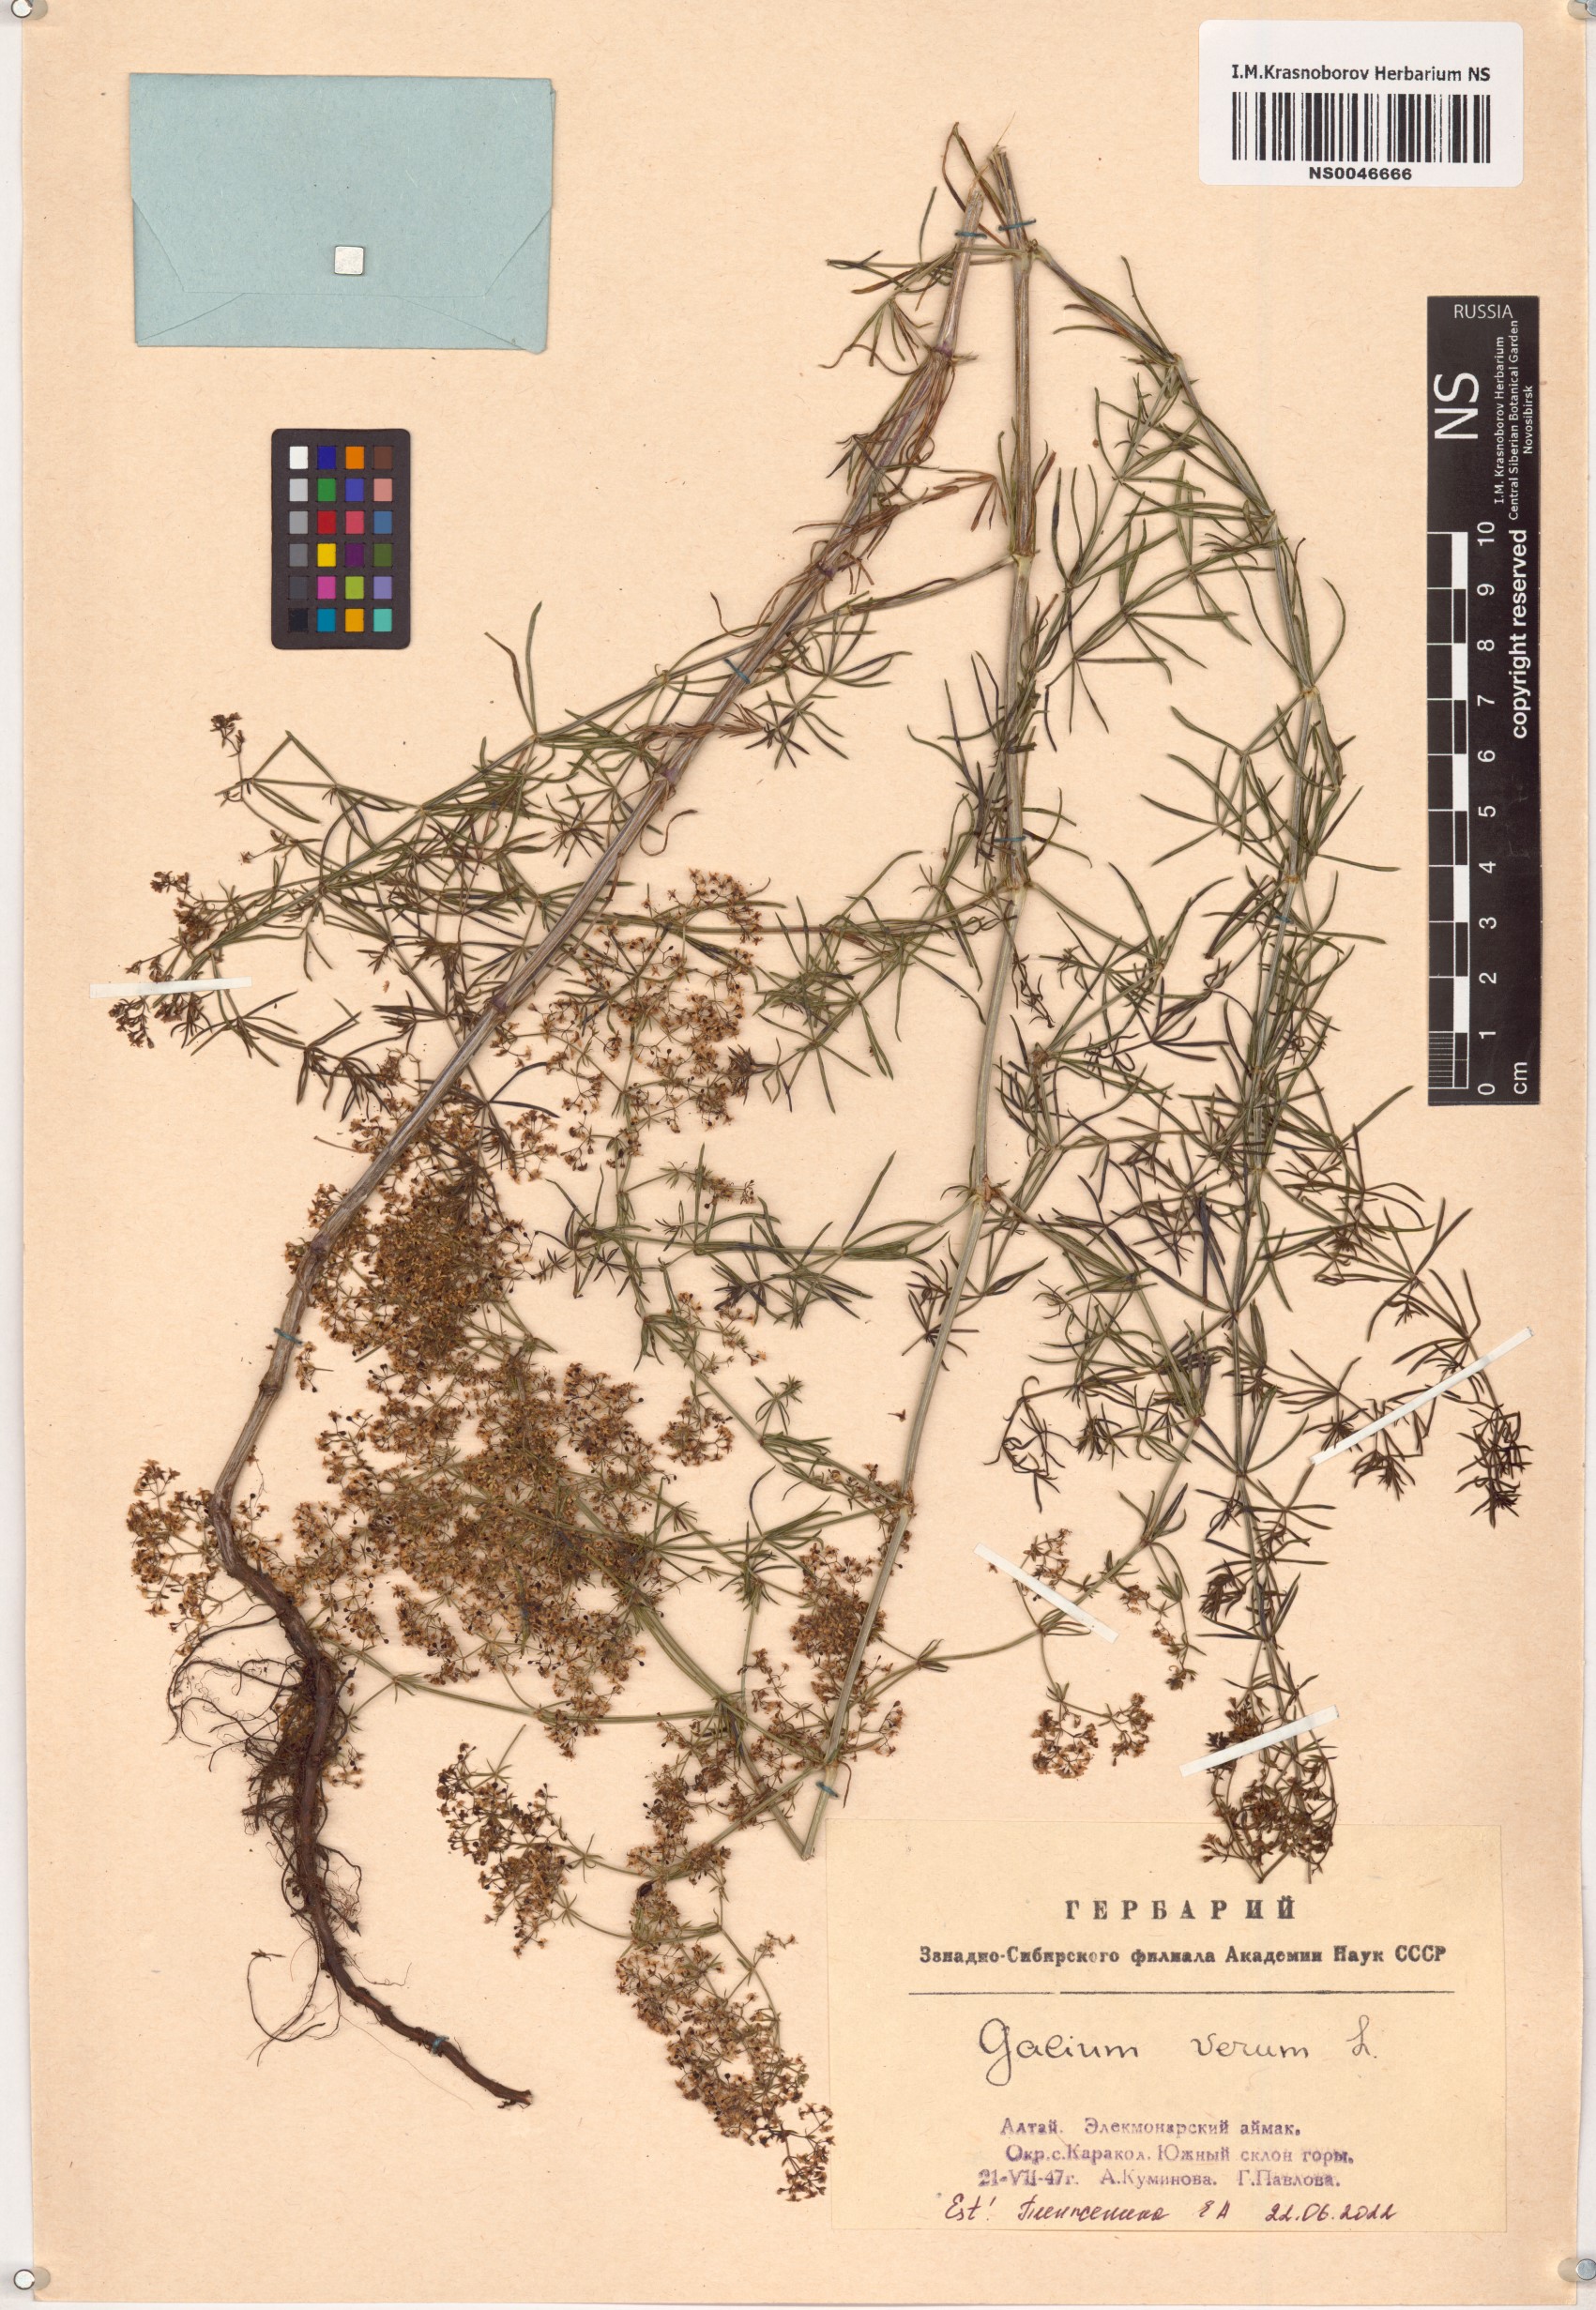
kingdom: Plantae
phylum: Tracheophyta
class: Magnoliopsida
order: Gentianales
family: Rubiaceae
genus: Galium
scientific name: Galium verum
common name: Lady's bedstraw
